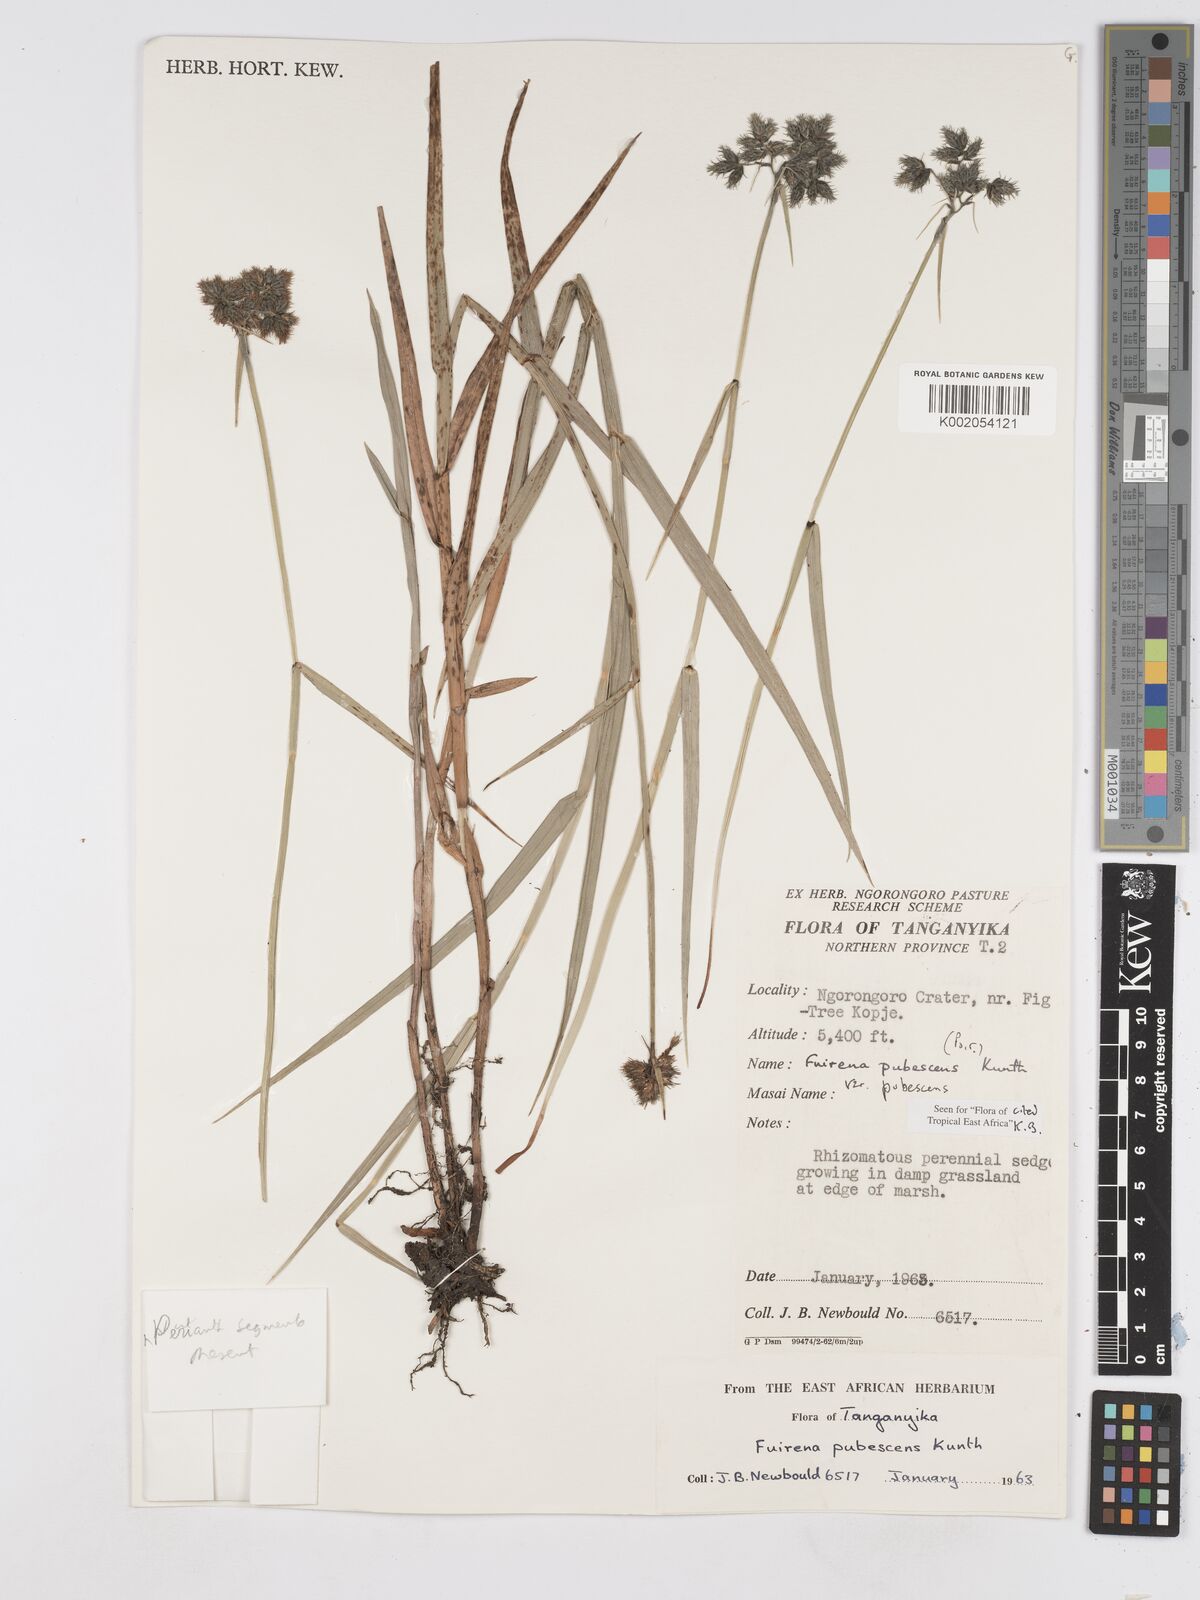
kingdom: Plantae
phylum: Tracheophyta
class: Liliopsida
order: Poales
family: Cyperaceae
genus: Fuirena
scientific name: Fuirena pubescens
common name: Hairy sedge
